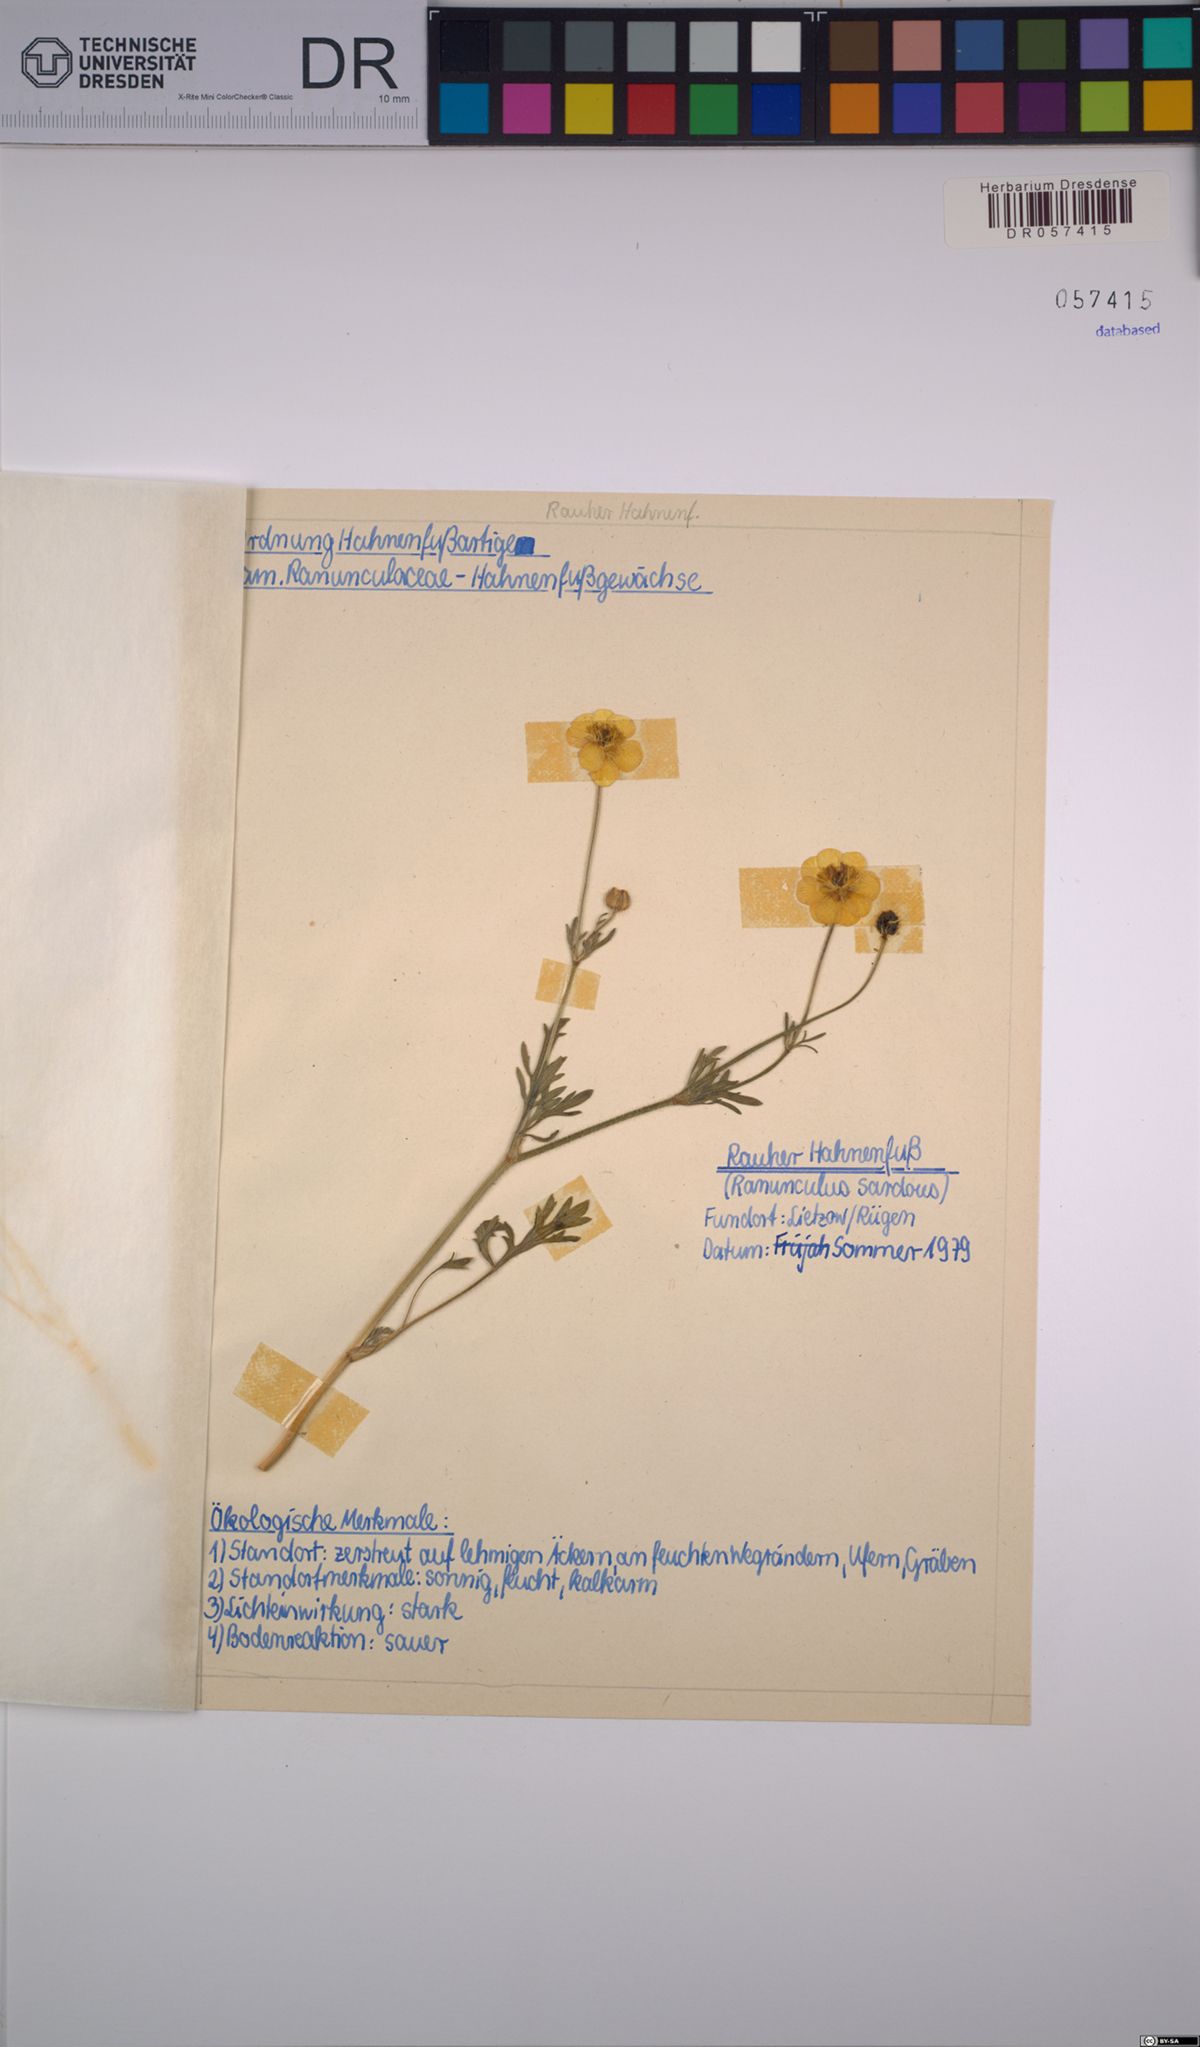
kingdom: Plantae
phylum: Tracheophyta
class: Magnoliopsida
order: Ranunculales
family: Ranunculaceae
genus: Ranunculus
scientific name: Ranunculus sardous
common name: Hairy buttercup
